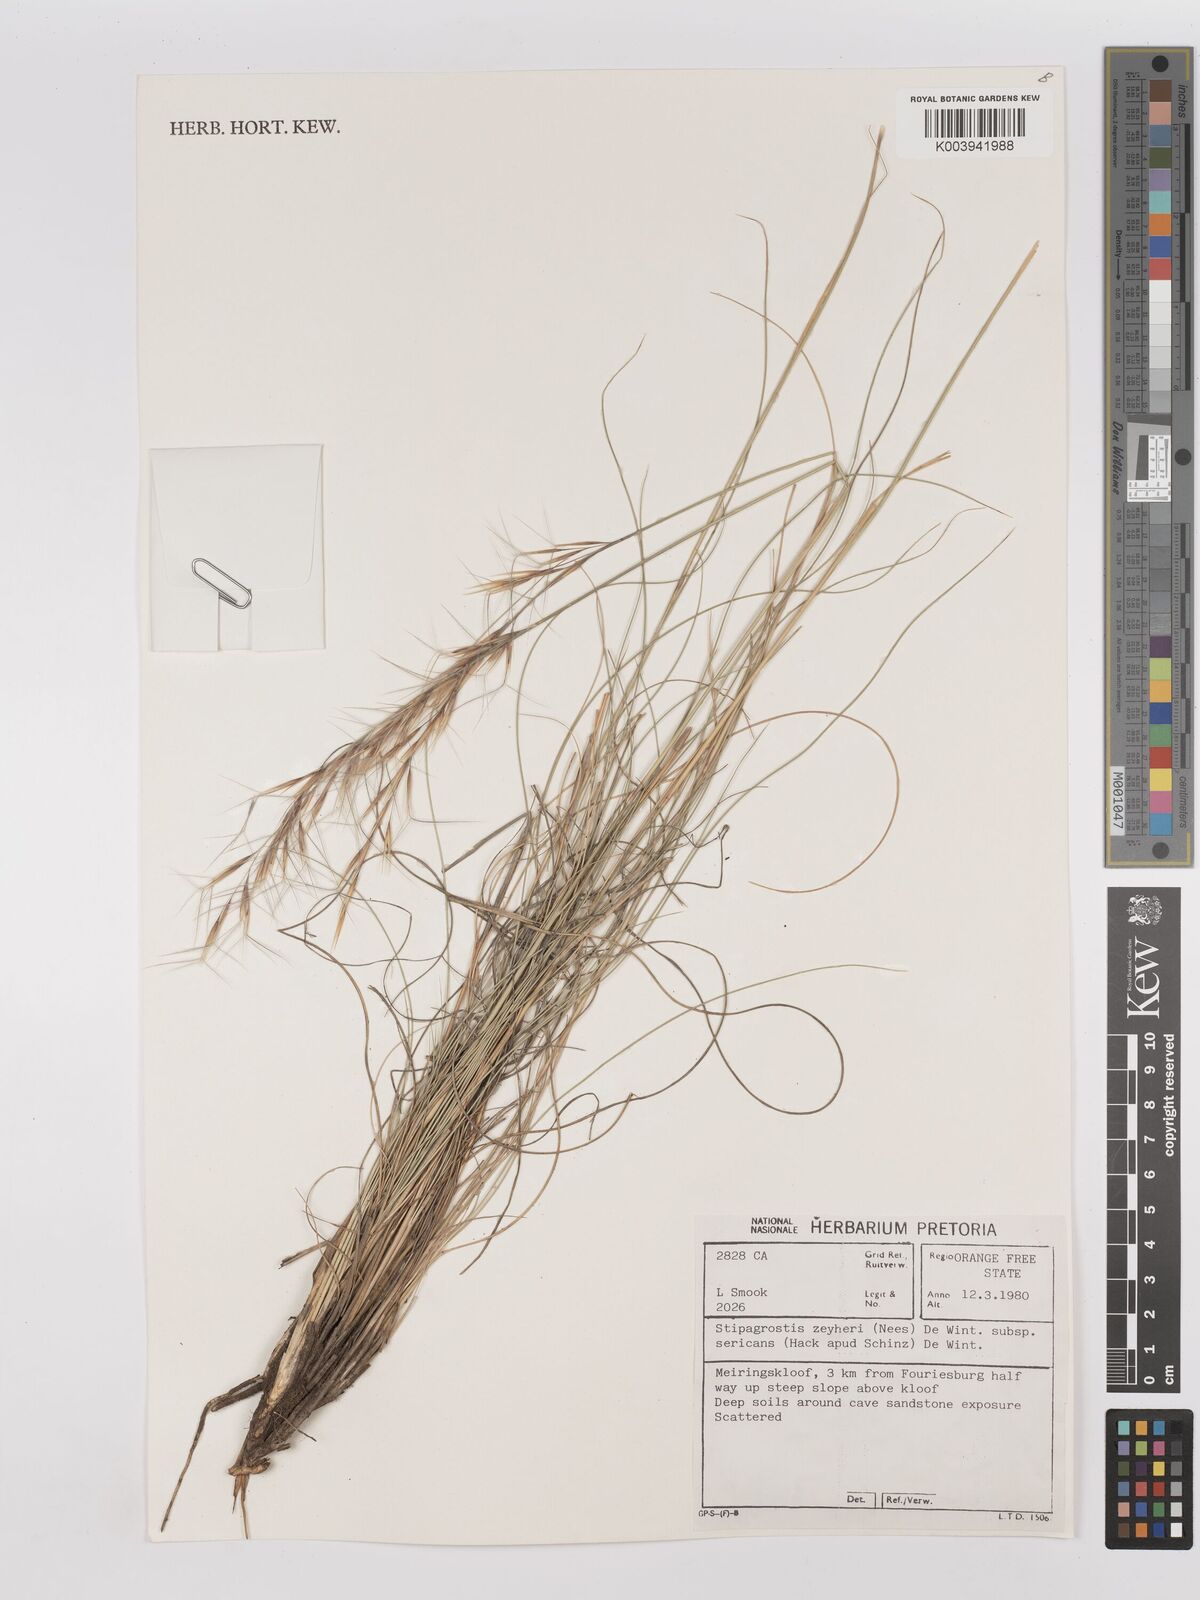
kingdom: Plantae
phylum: Tracheophyta
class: Liliopsida
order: Poales
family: Poaceae
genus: Stipagrostis
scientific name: Stipagrostis zeyheri
